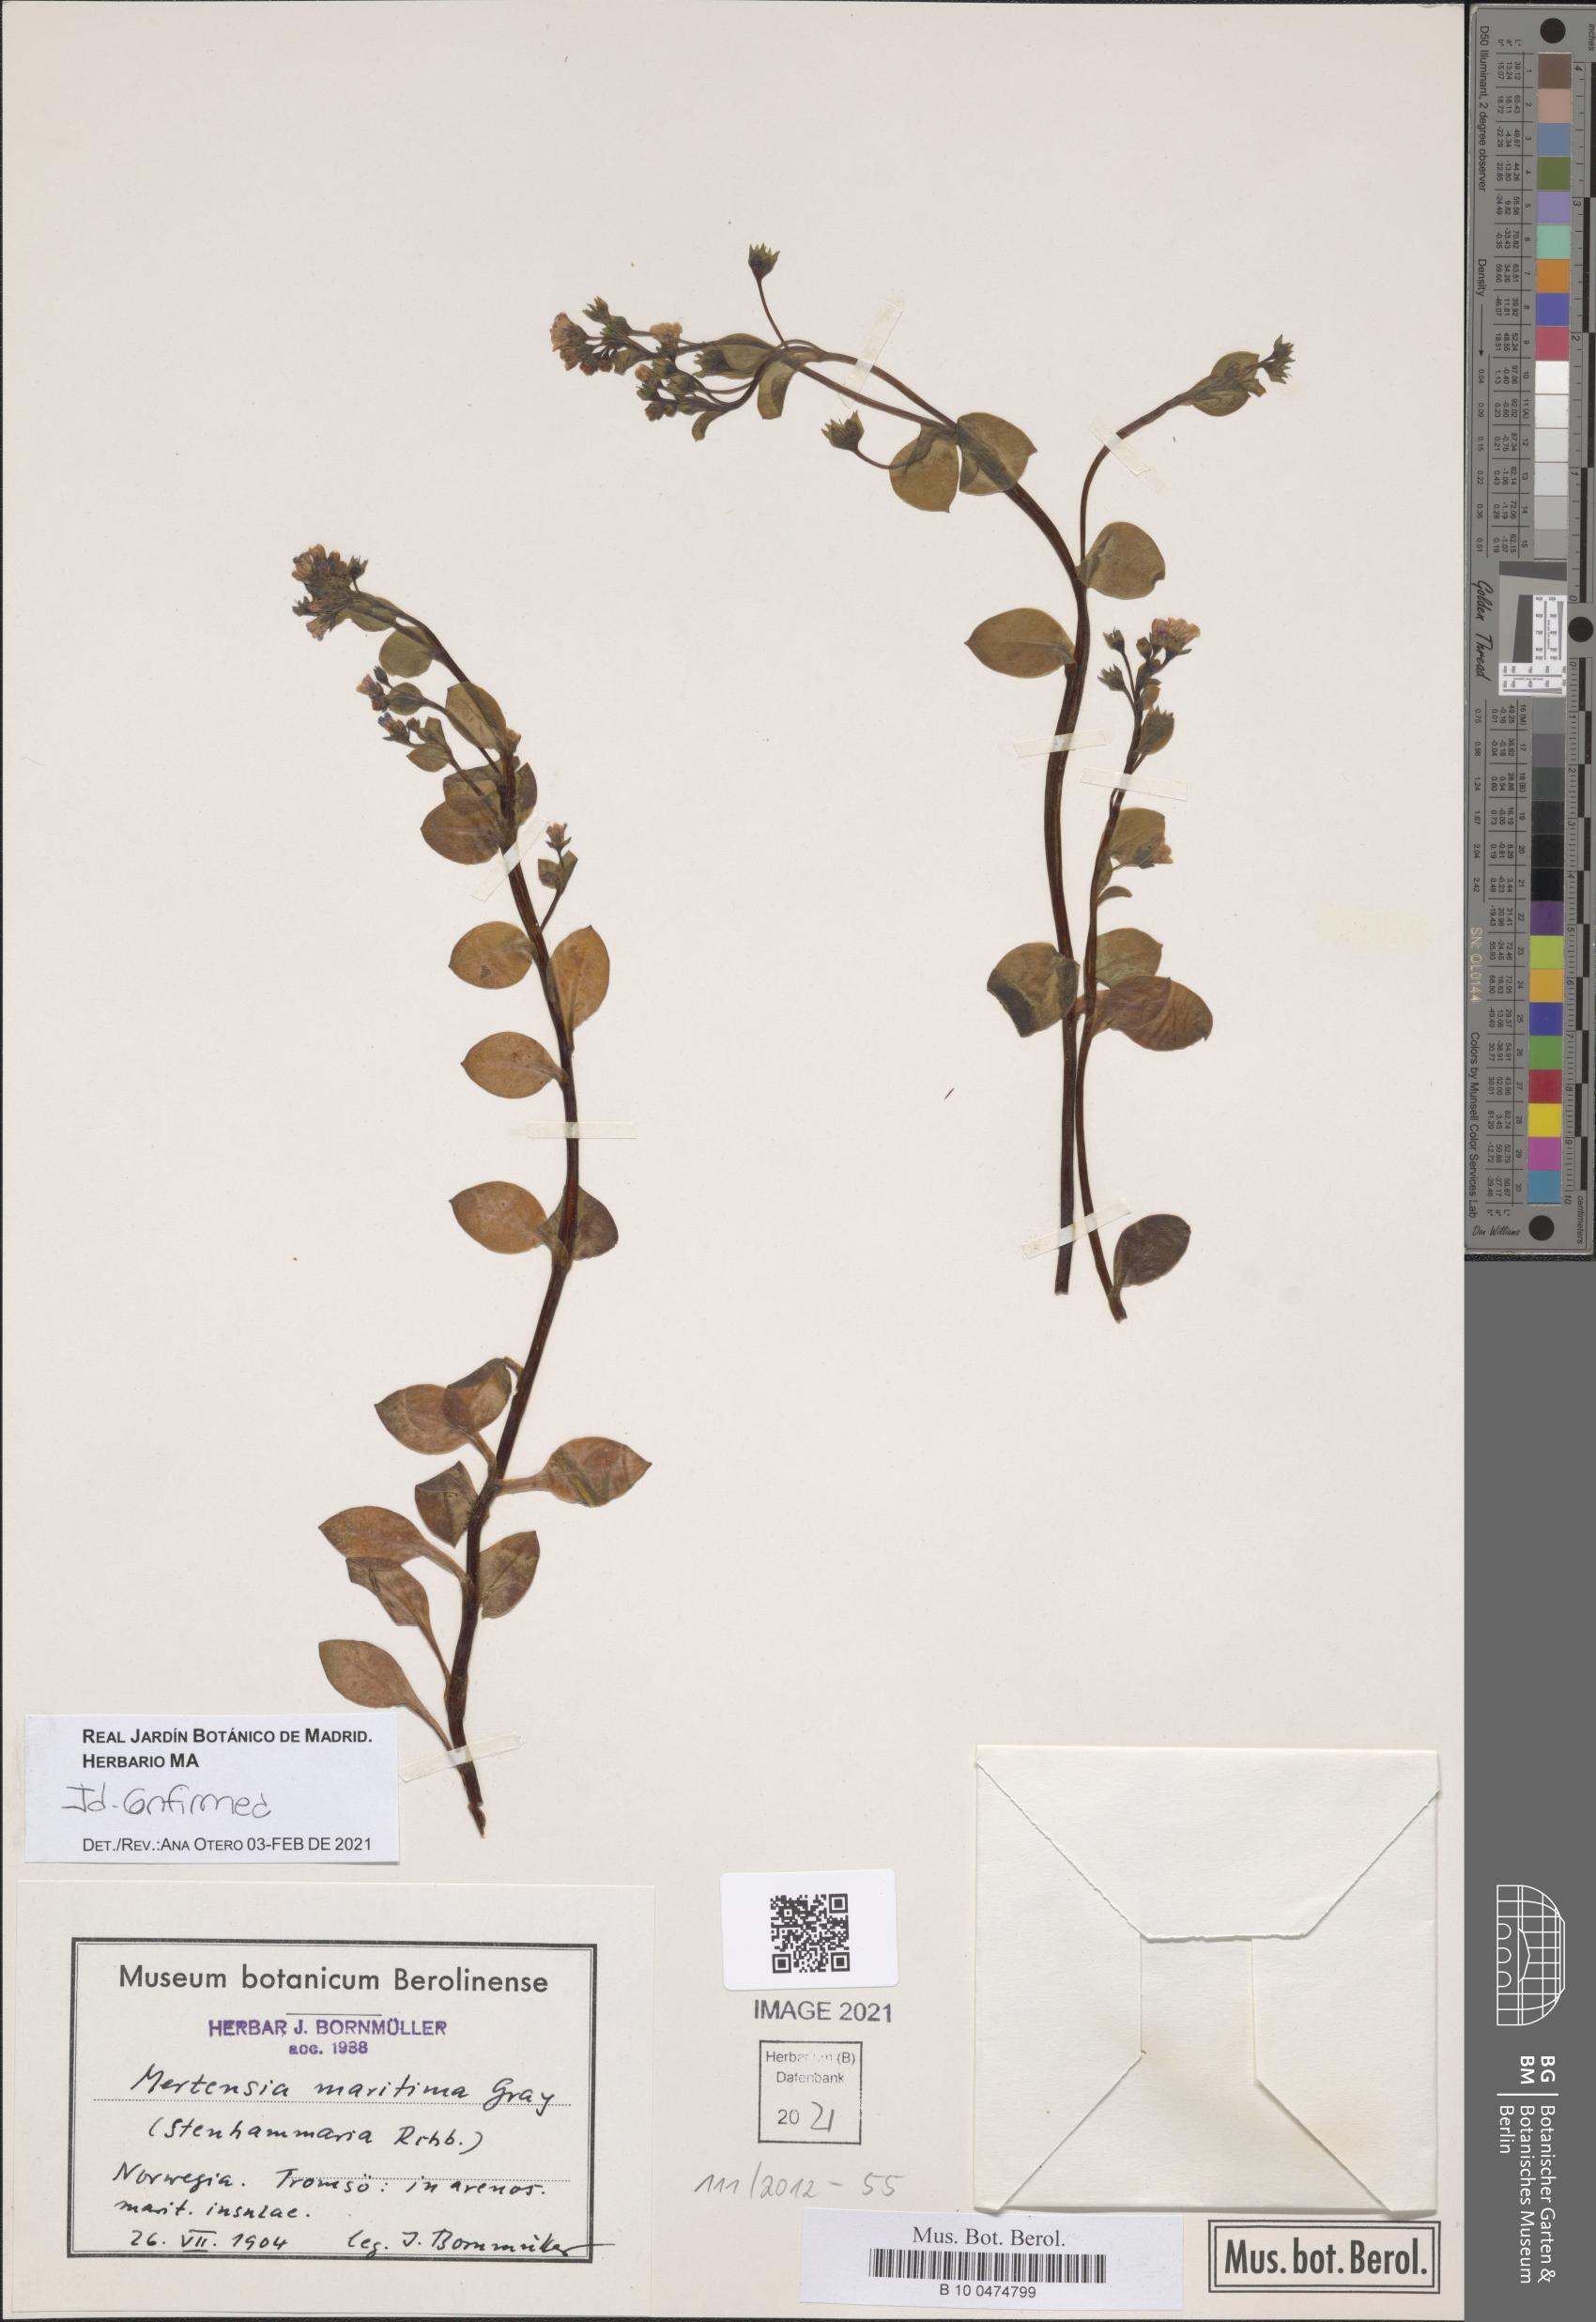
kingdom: Plantae
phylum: Tracheophyta
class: Magnoliopsida
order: Boraginales
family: Boraginaceae
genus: Mertensia
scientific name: Mertensia maritima
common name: Oysterplant
